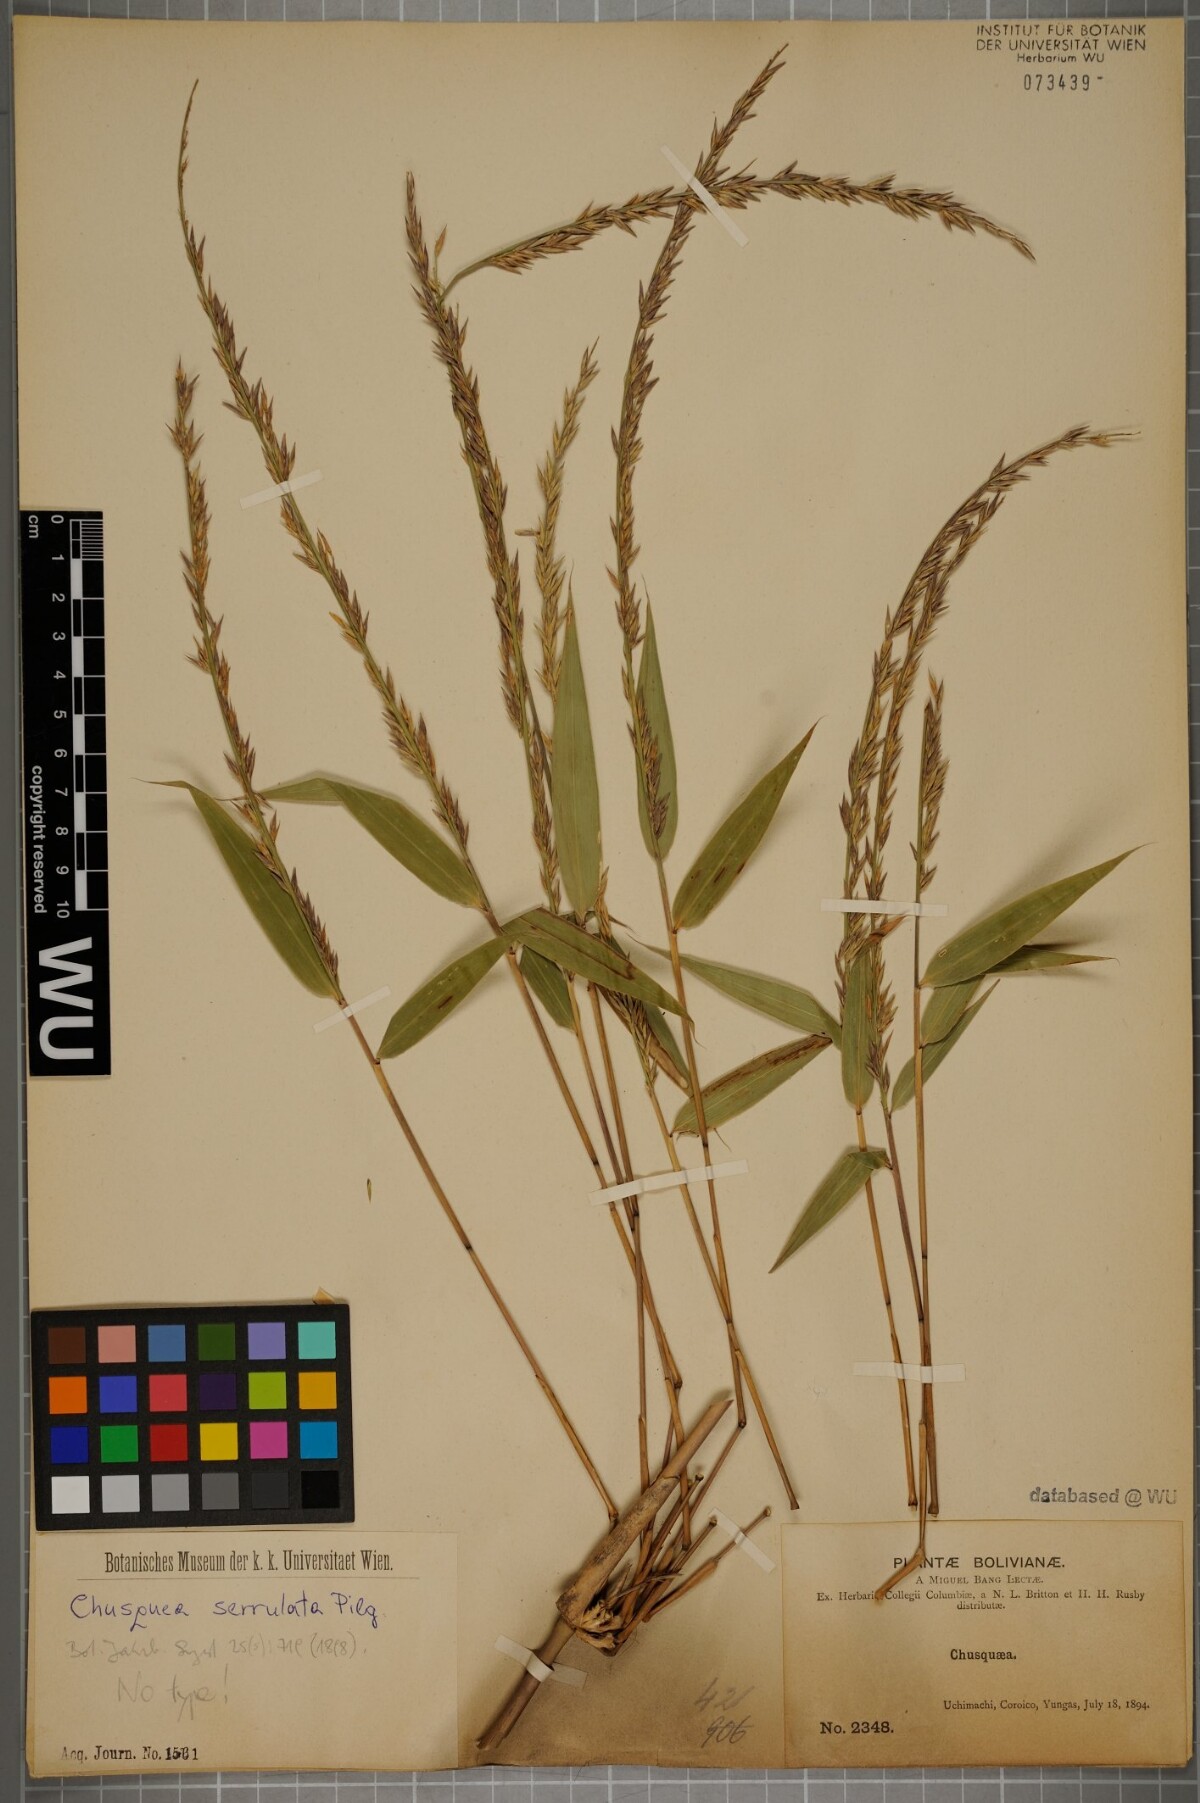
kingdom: Plantae
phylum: Tracheophyta
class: Liliopsida
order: Poales
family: Poaceae
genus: Chusquea
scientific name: Chusquea serrulata
